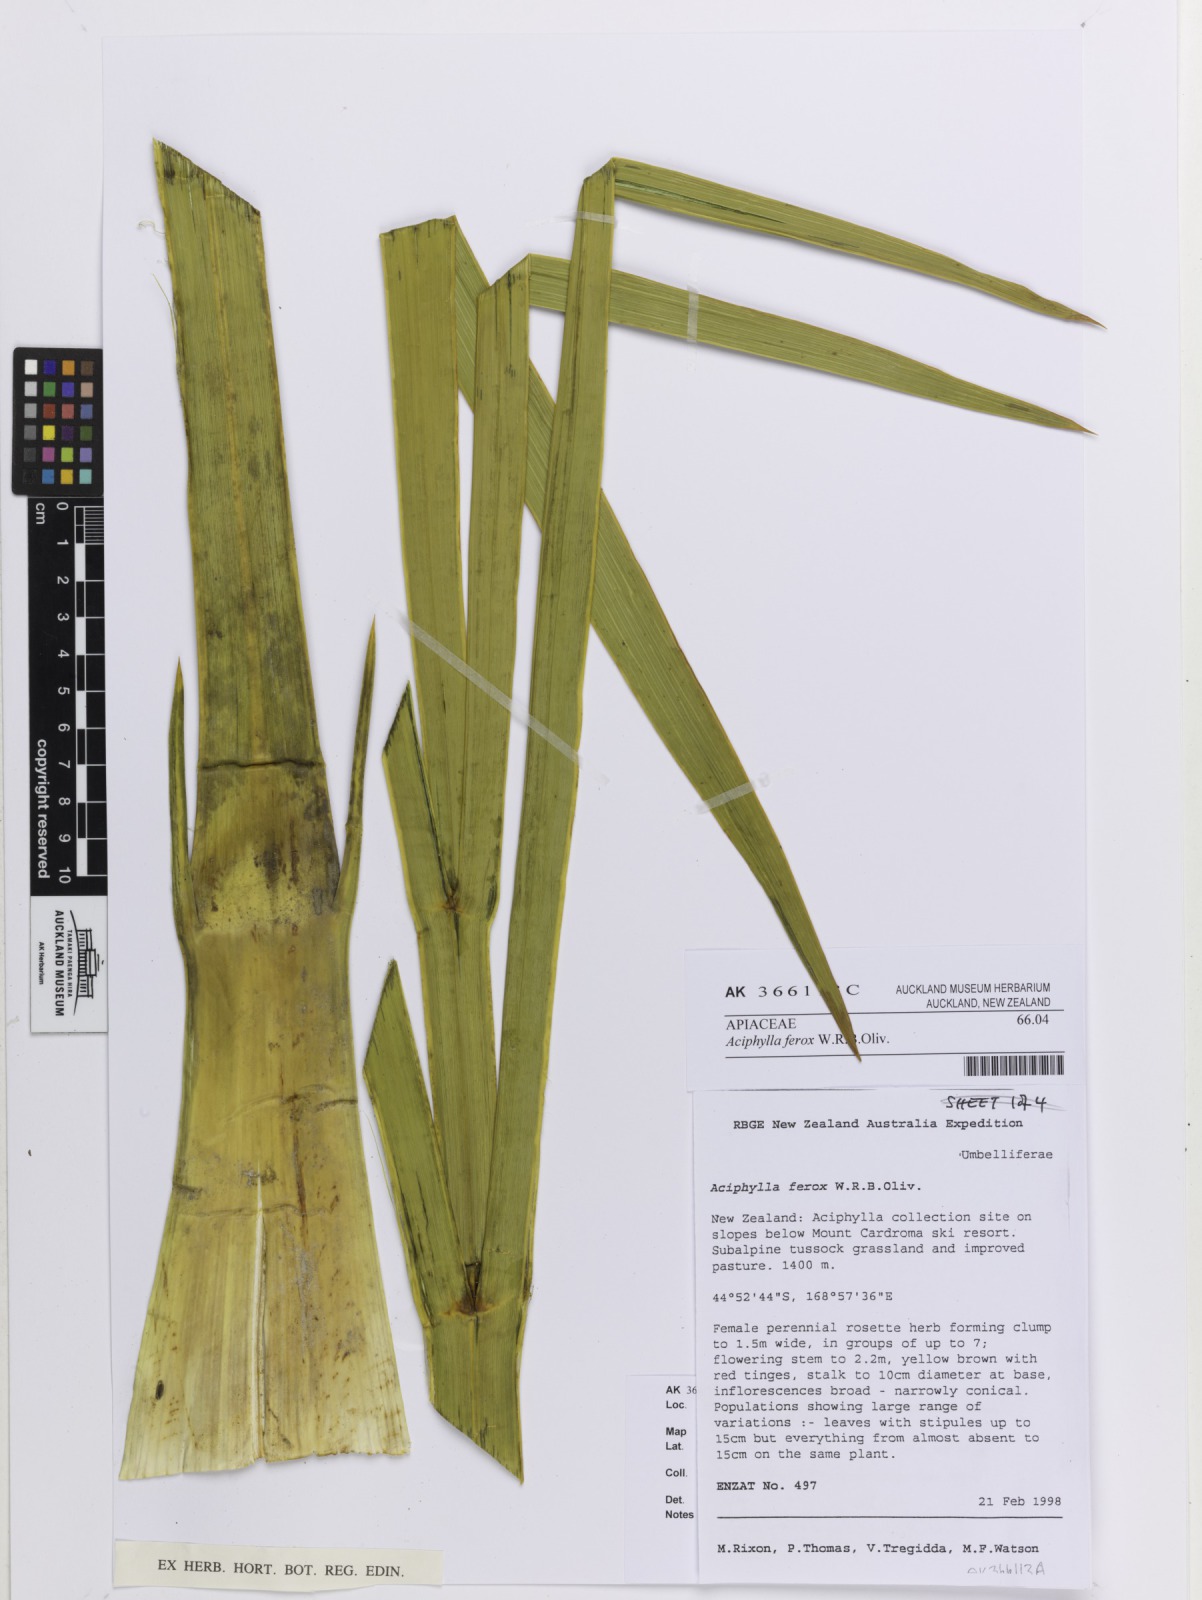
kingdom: Plantae
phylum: Tracheophyta
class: Magnoliopsida
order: Apiales
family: Apiaceae
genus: Aciphylla
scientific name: Aciphylla ferox
